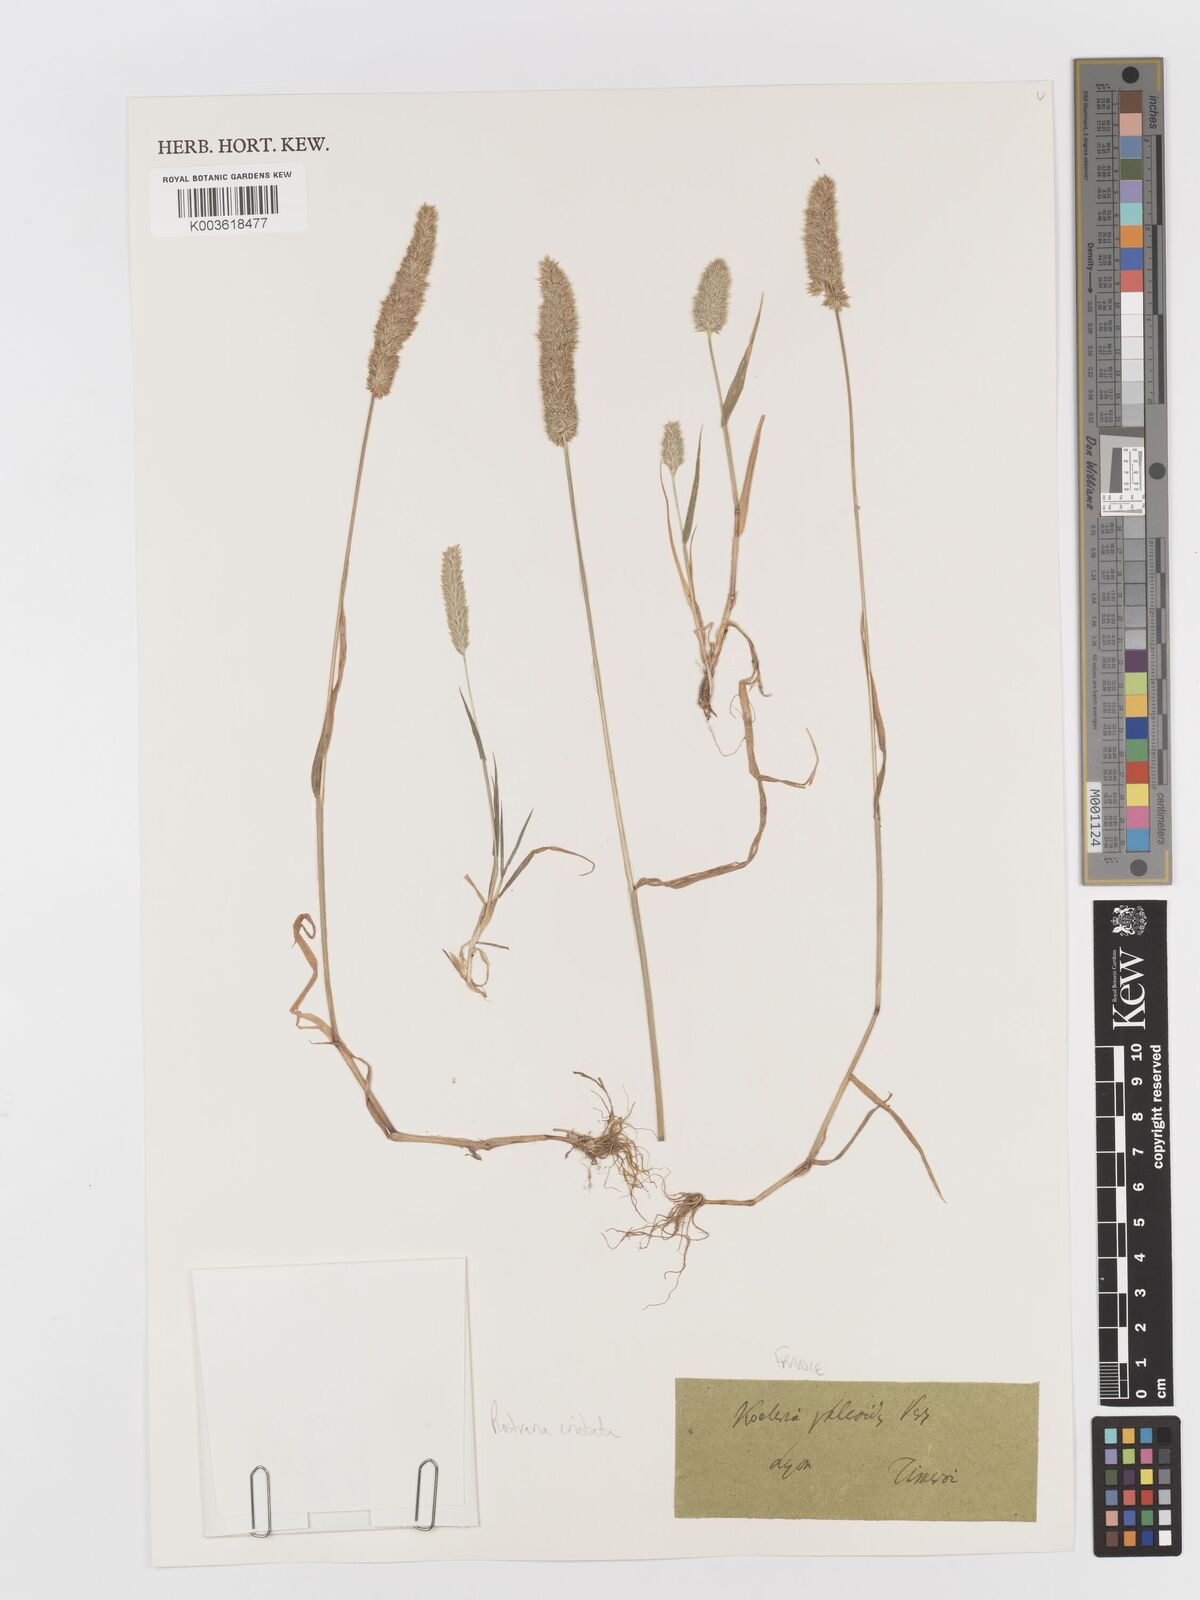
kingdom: Plantae
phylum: Tracheophyta
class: Liliopsida
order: Poales
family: Poaceae
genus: Rostraria
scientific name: Rostraria cristata
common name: Mediterranean hair-grass
